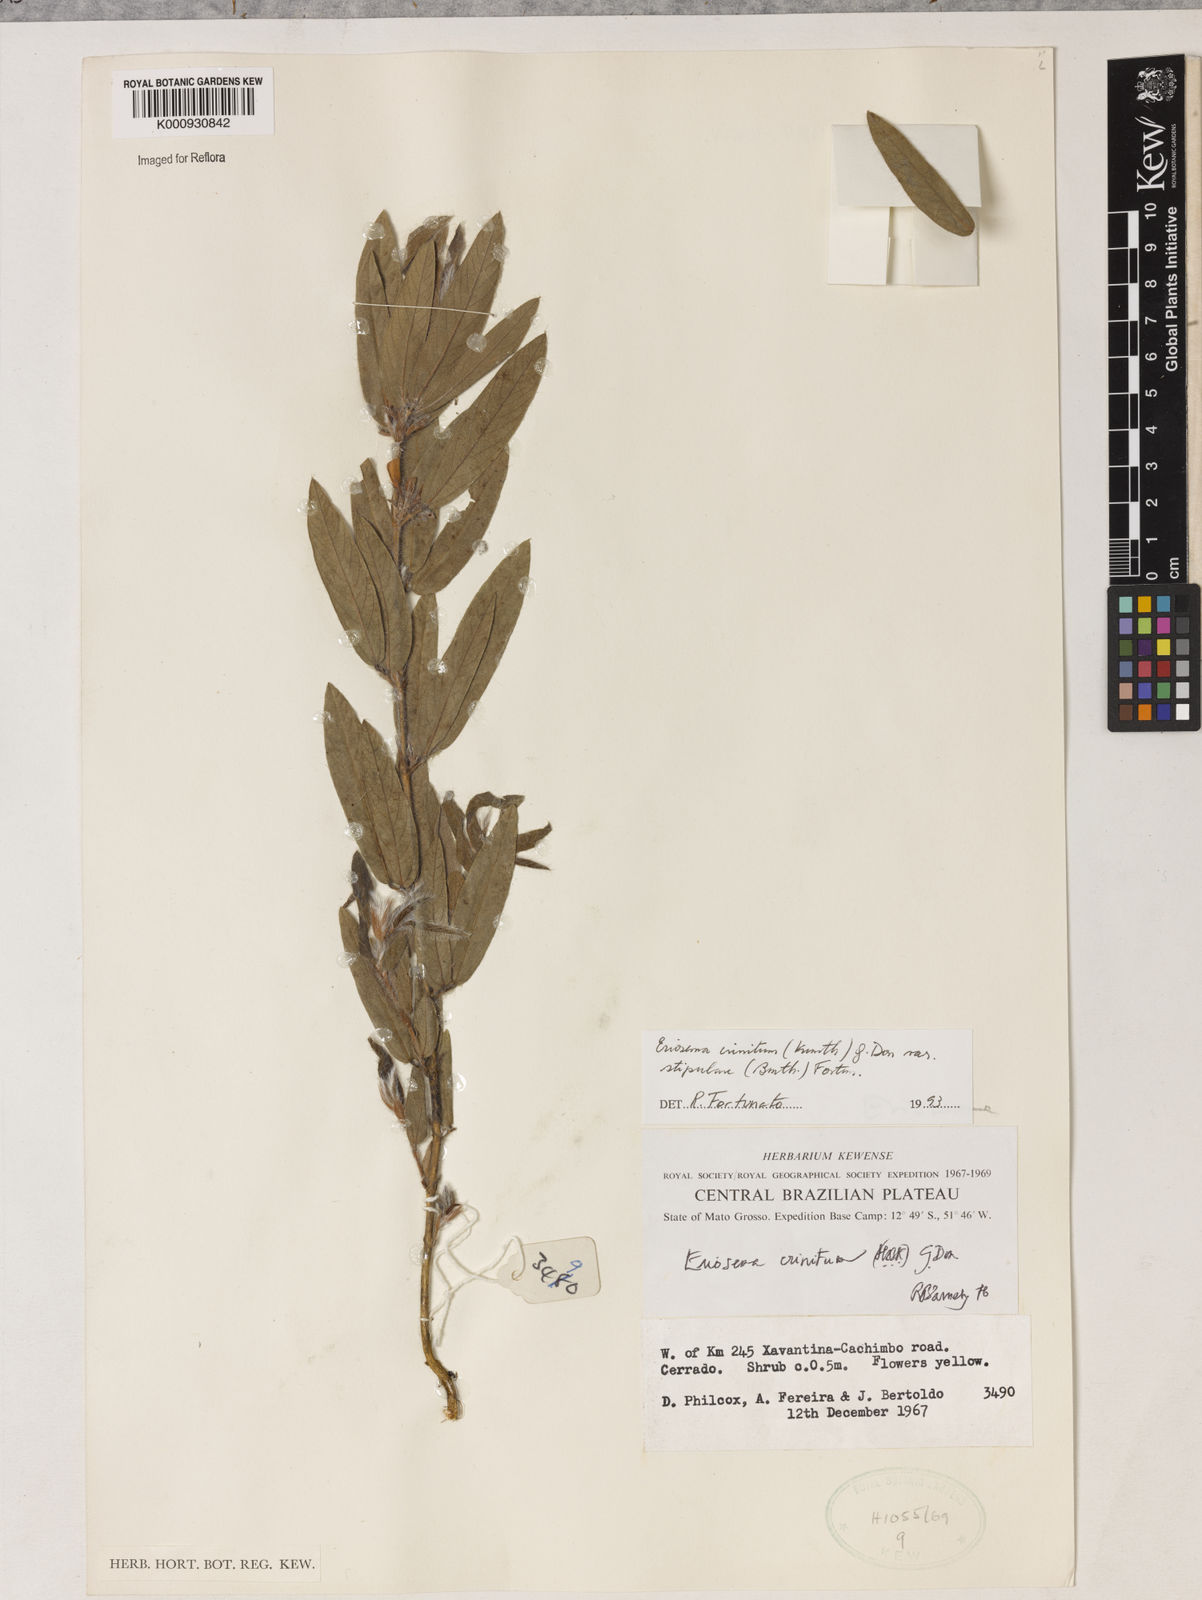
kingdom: Plantae
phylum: Tracheophyta
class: Magnoliopsida
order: Fabales
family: Fabaceae
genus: Eriosema
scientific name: Eriosema crinitum
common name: Sand pea
